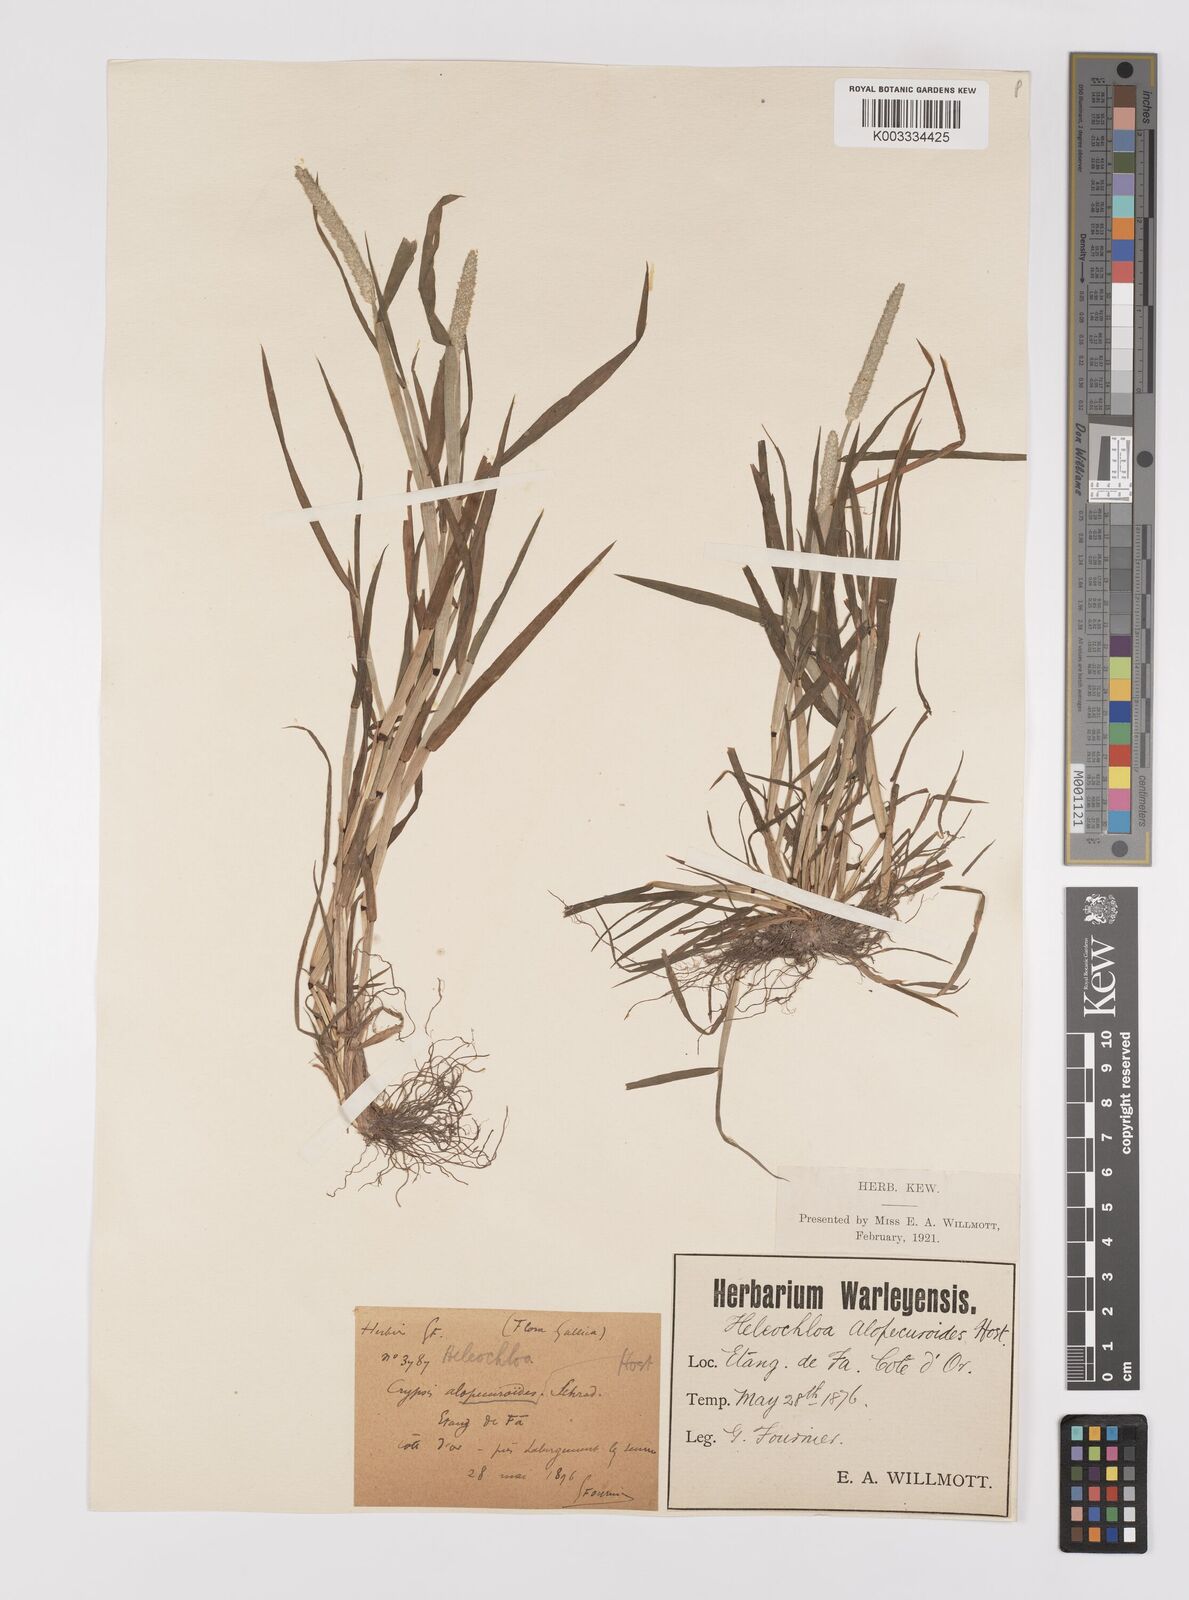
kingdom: Plantae
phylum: Tracheophyta
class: Liliopsida
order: Poales
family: Poaceae
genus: Alopecurus
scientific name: Alopecurus aequalis
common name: Orange foxtail
